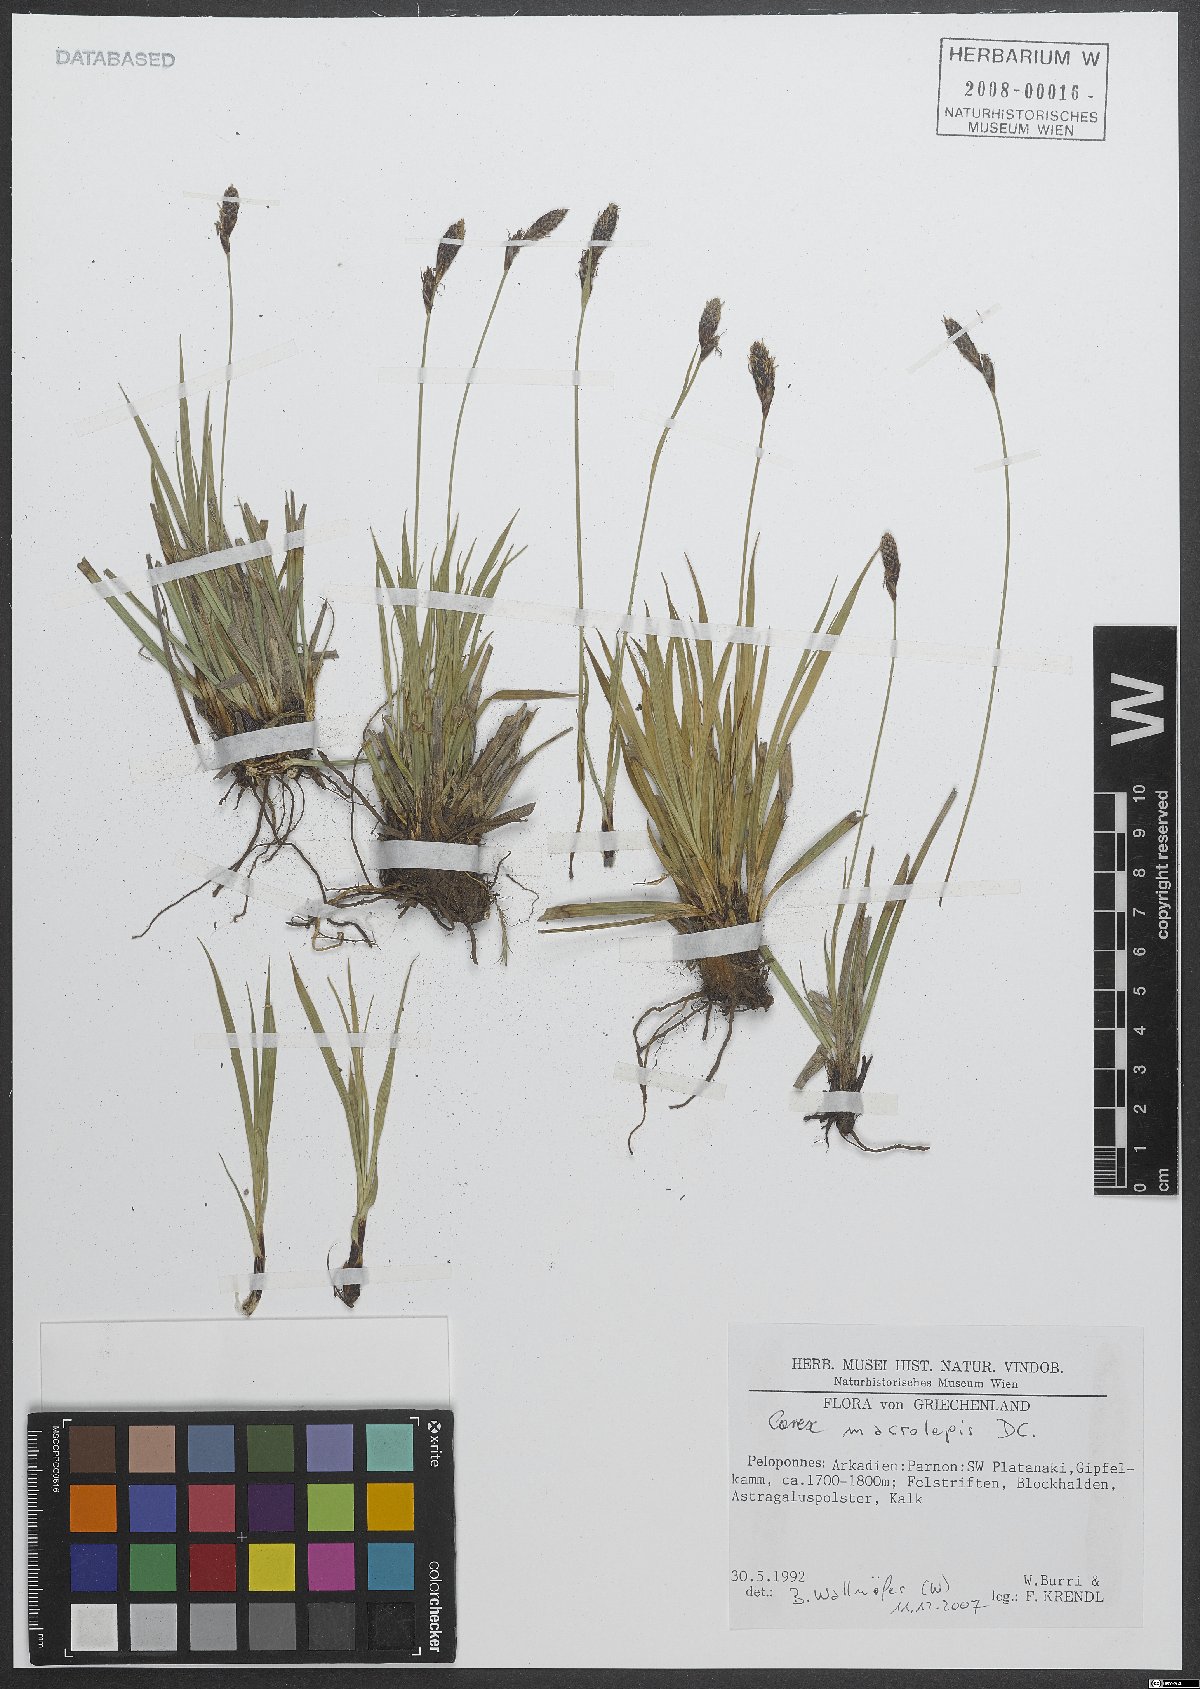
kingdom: Plantae
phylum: Tracheophyta
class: Liliopsida
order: Poales
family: Cyperaceae
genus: Carex
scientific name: Carex macrolepis
